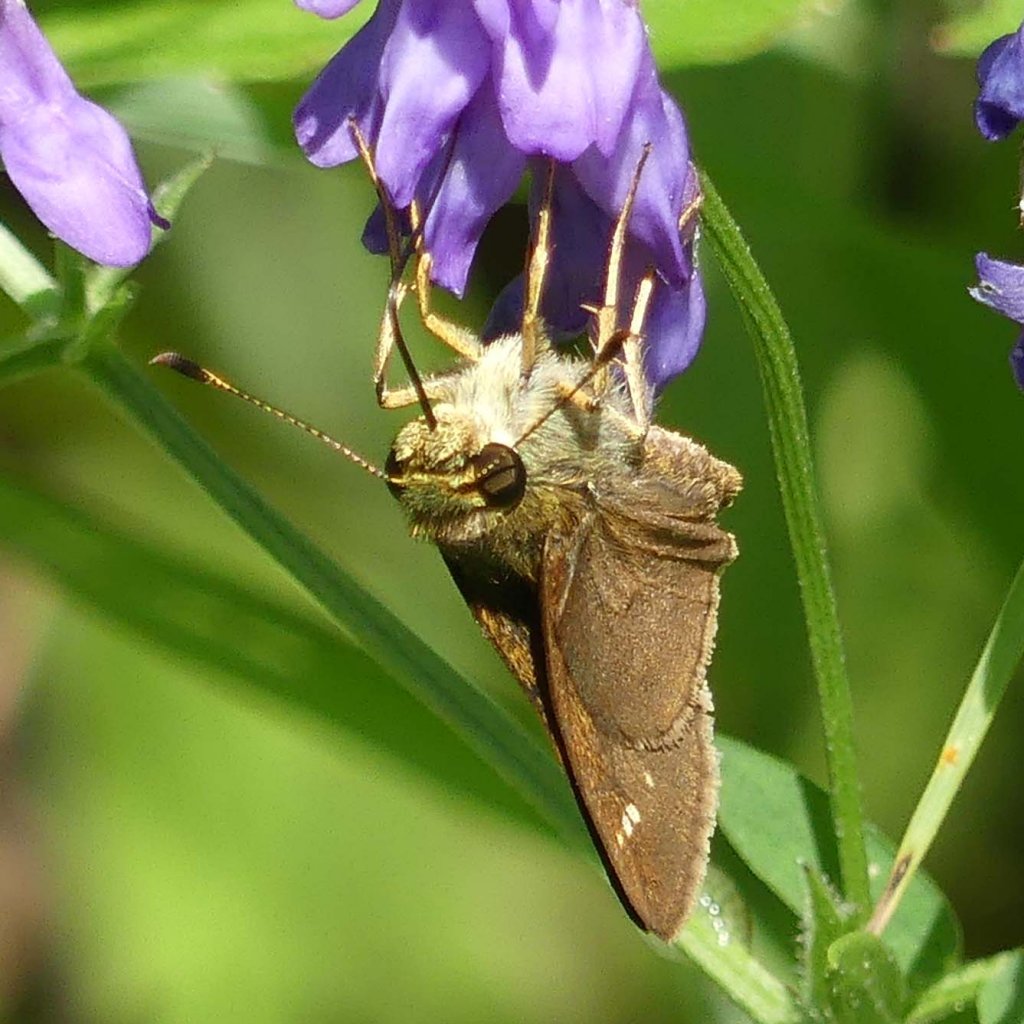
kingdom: Animalia
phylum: Arthropoda
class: Insecta
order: Lepidoptera
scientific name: Lepidoptera
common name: Butterflies
